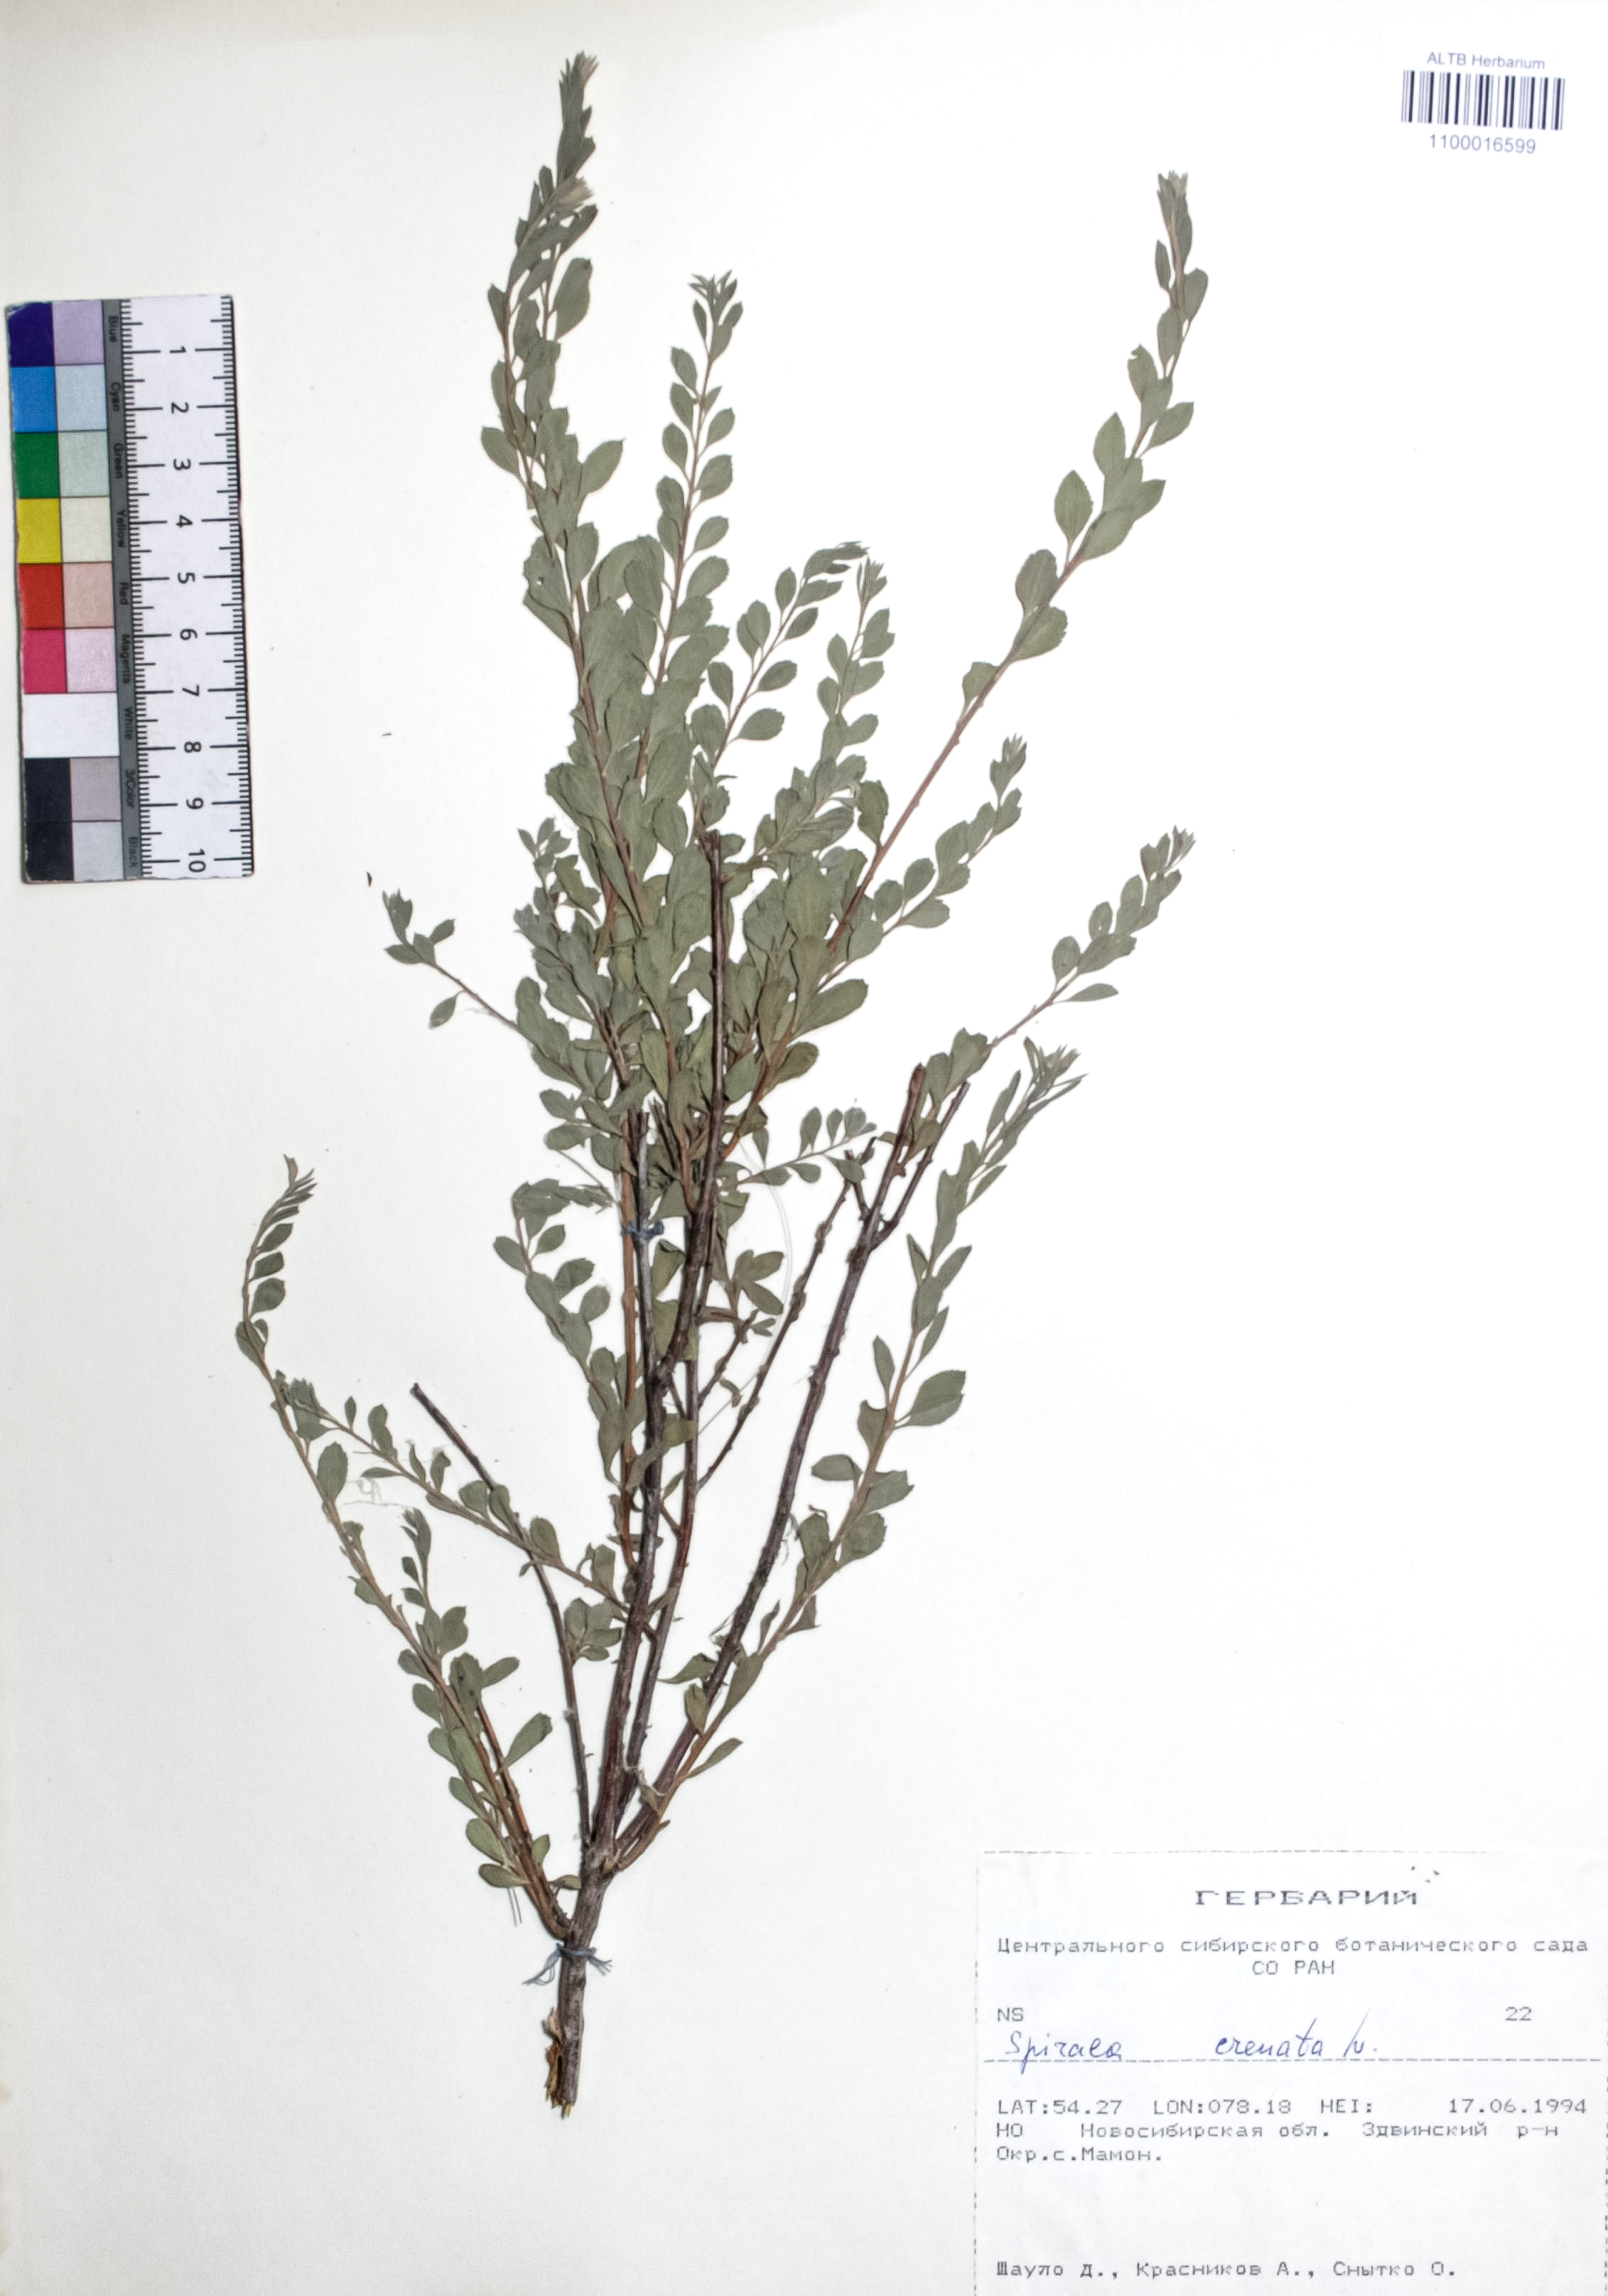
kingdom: Plantae
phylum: Tracheophyta
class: Magnoliopsida
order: Rosales
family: Rosaceae
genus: Spiraea
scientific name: Spiraea crenata
